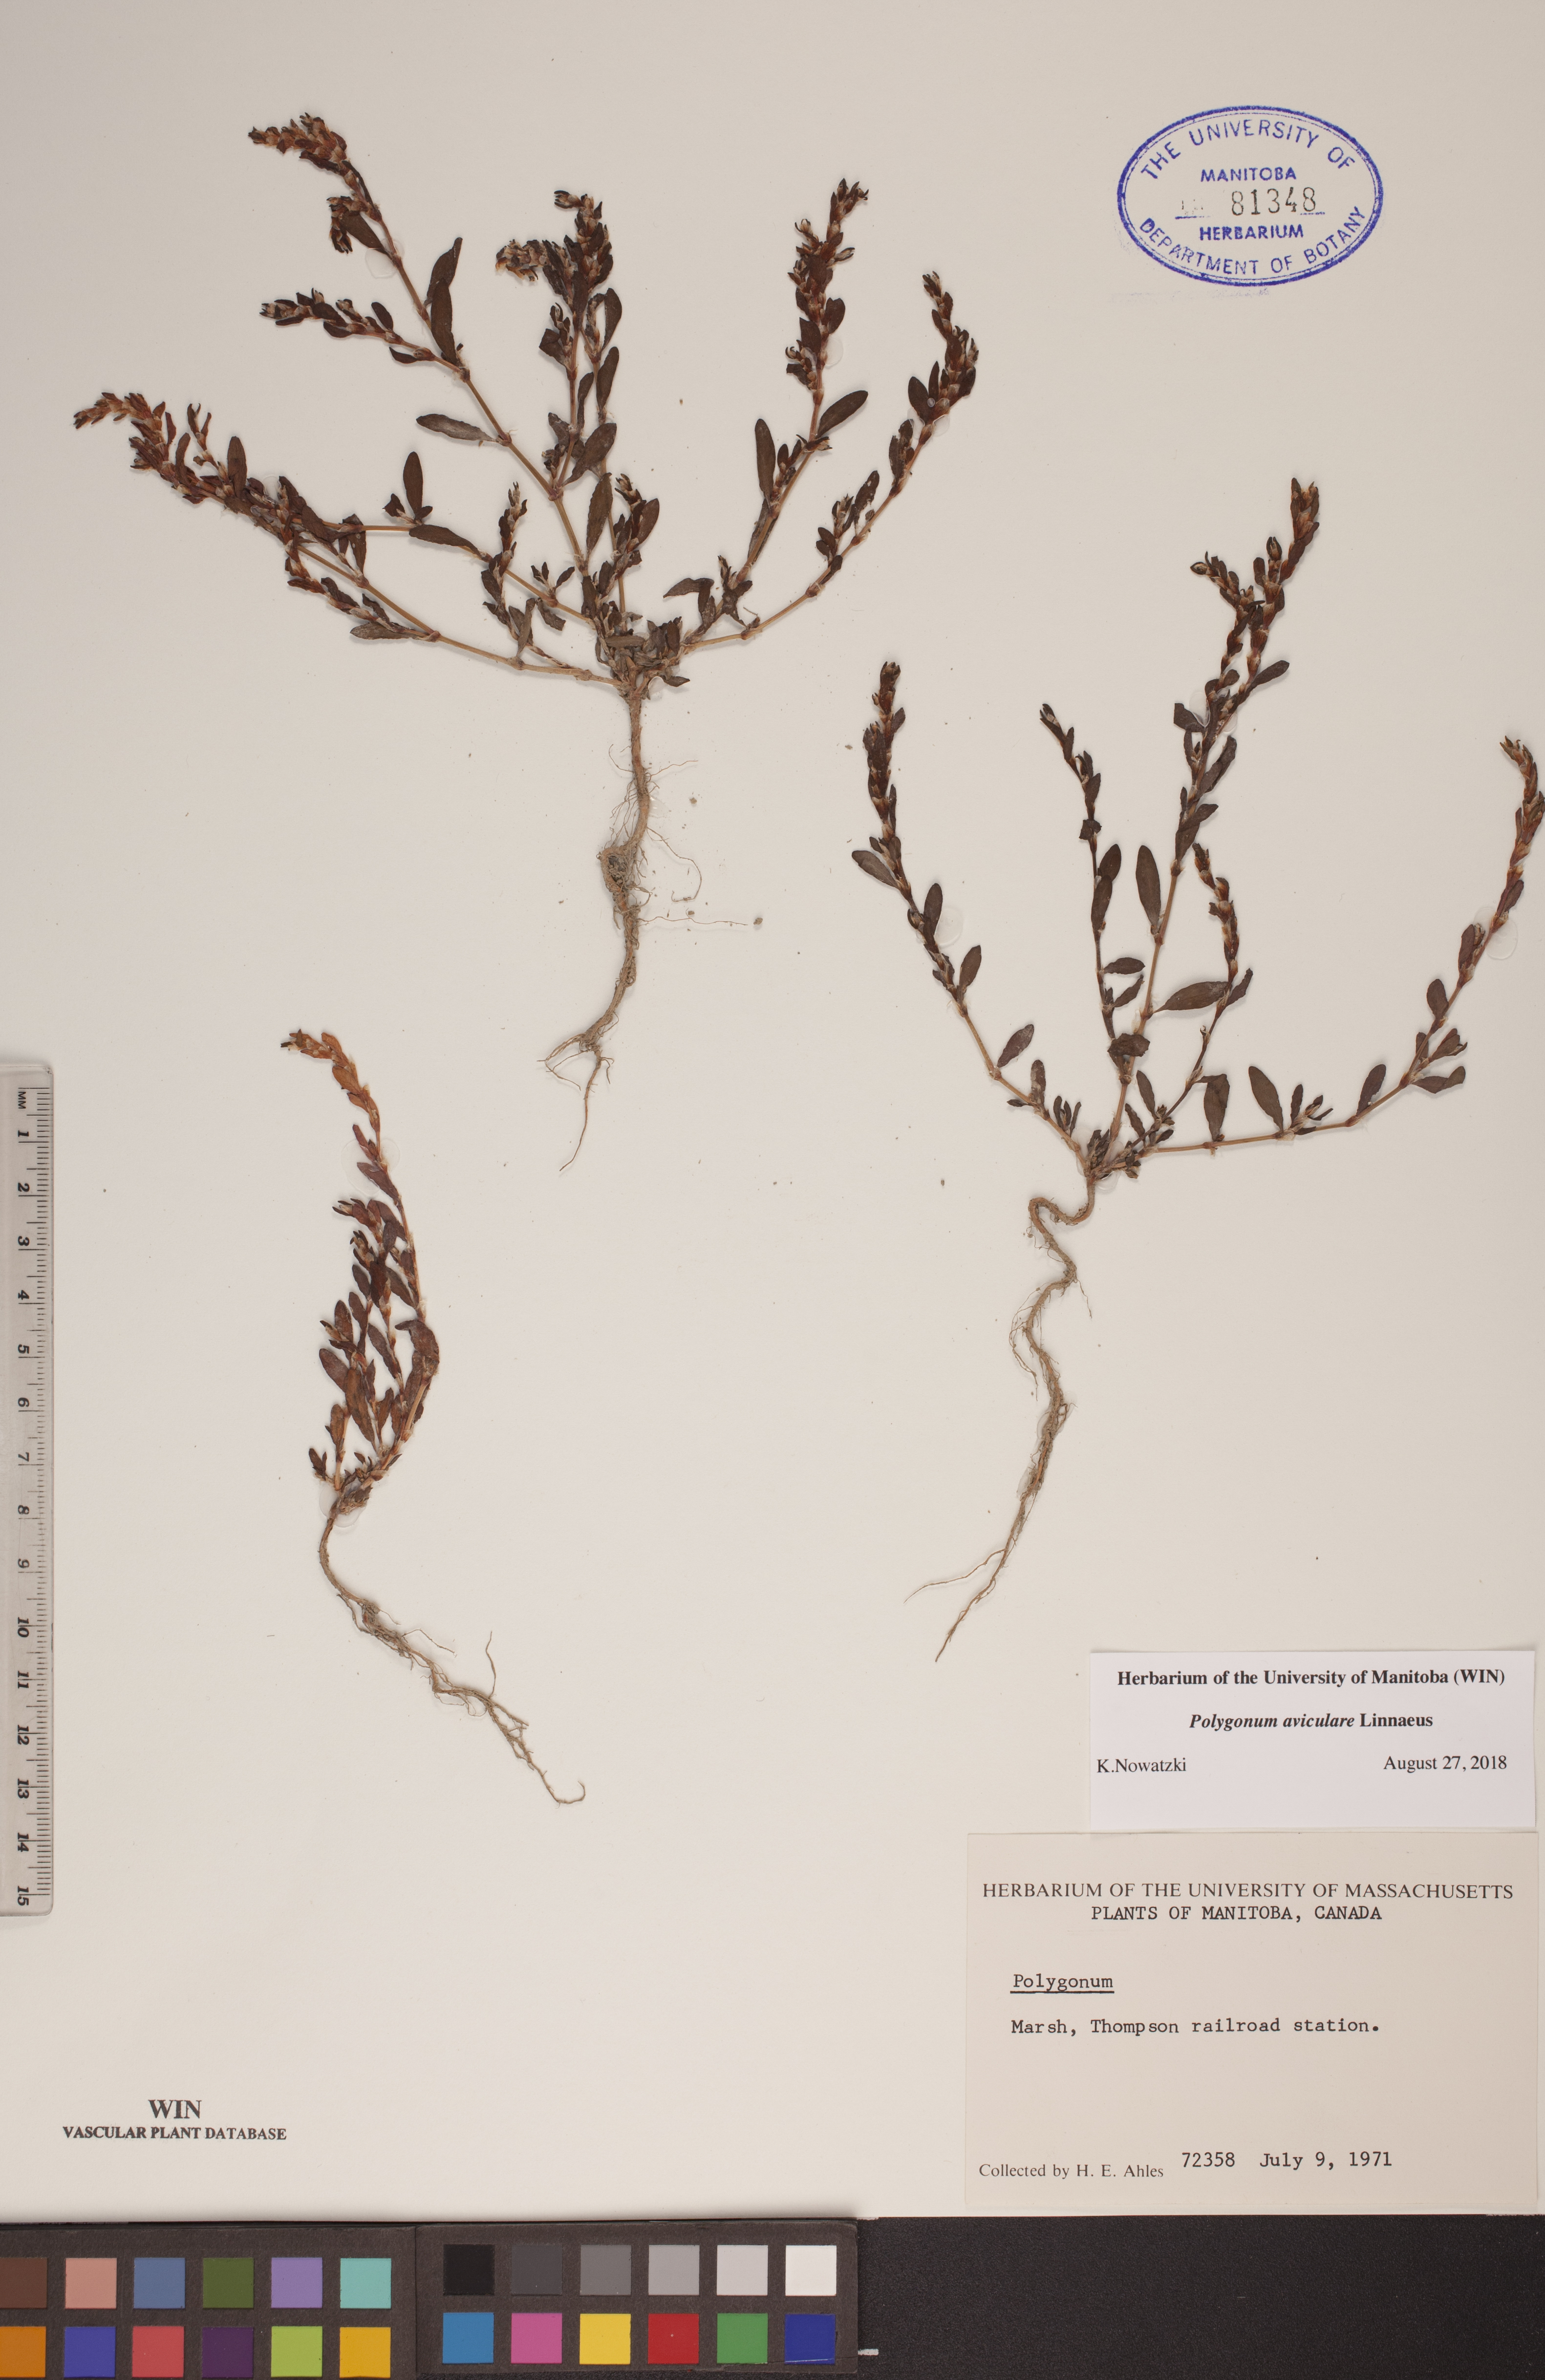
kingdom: Plantae
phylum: Tracheophyta
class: Magnoliopsida
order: Caryophyllales
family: Polygonaceae
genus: Polygonum
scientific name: Polygonum aviculare
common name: Prostrate knotweed
